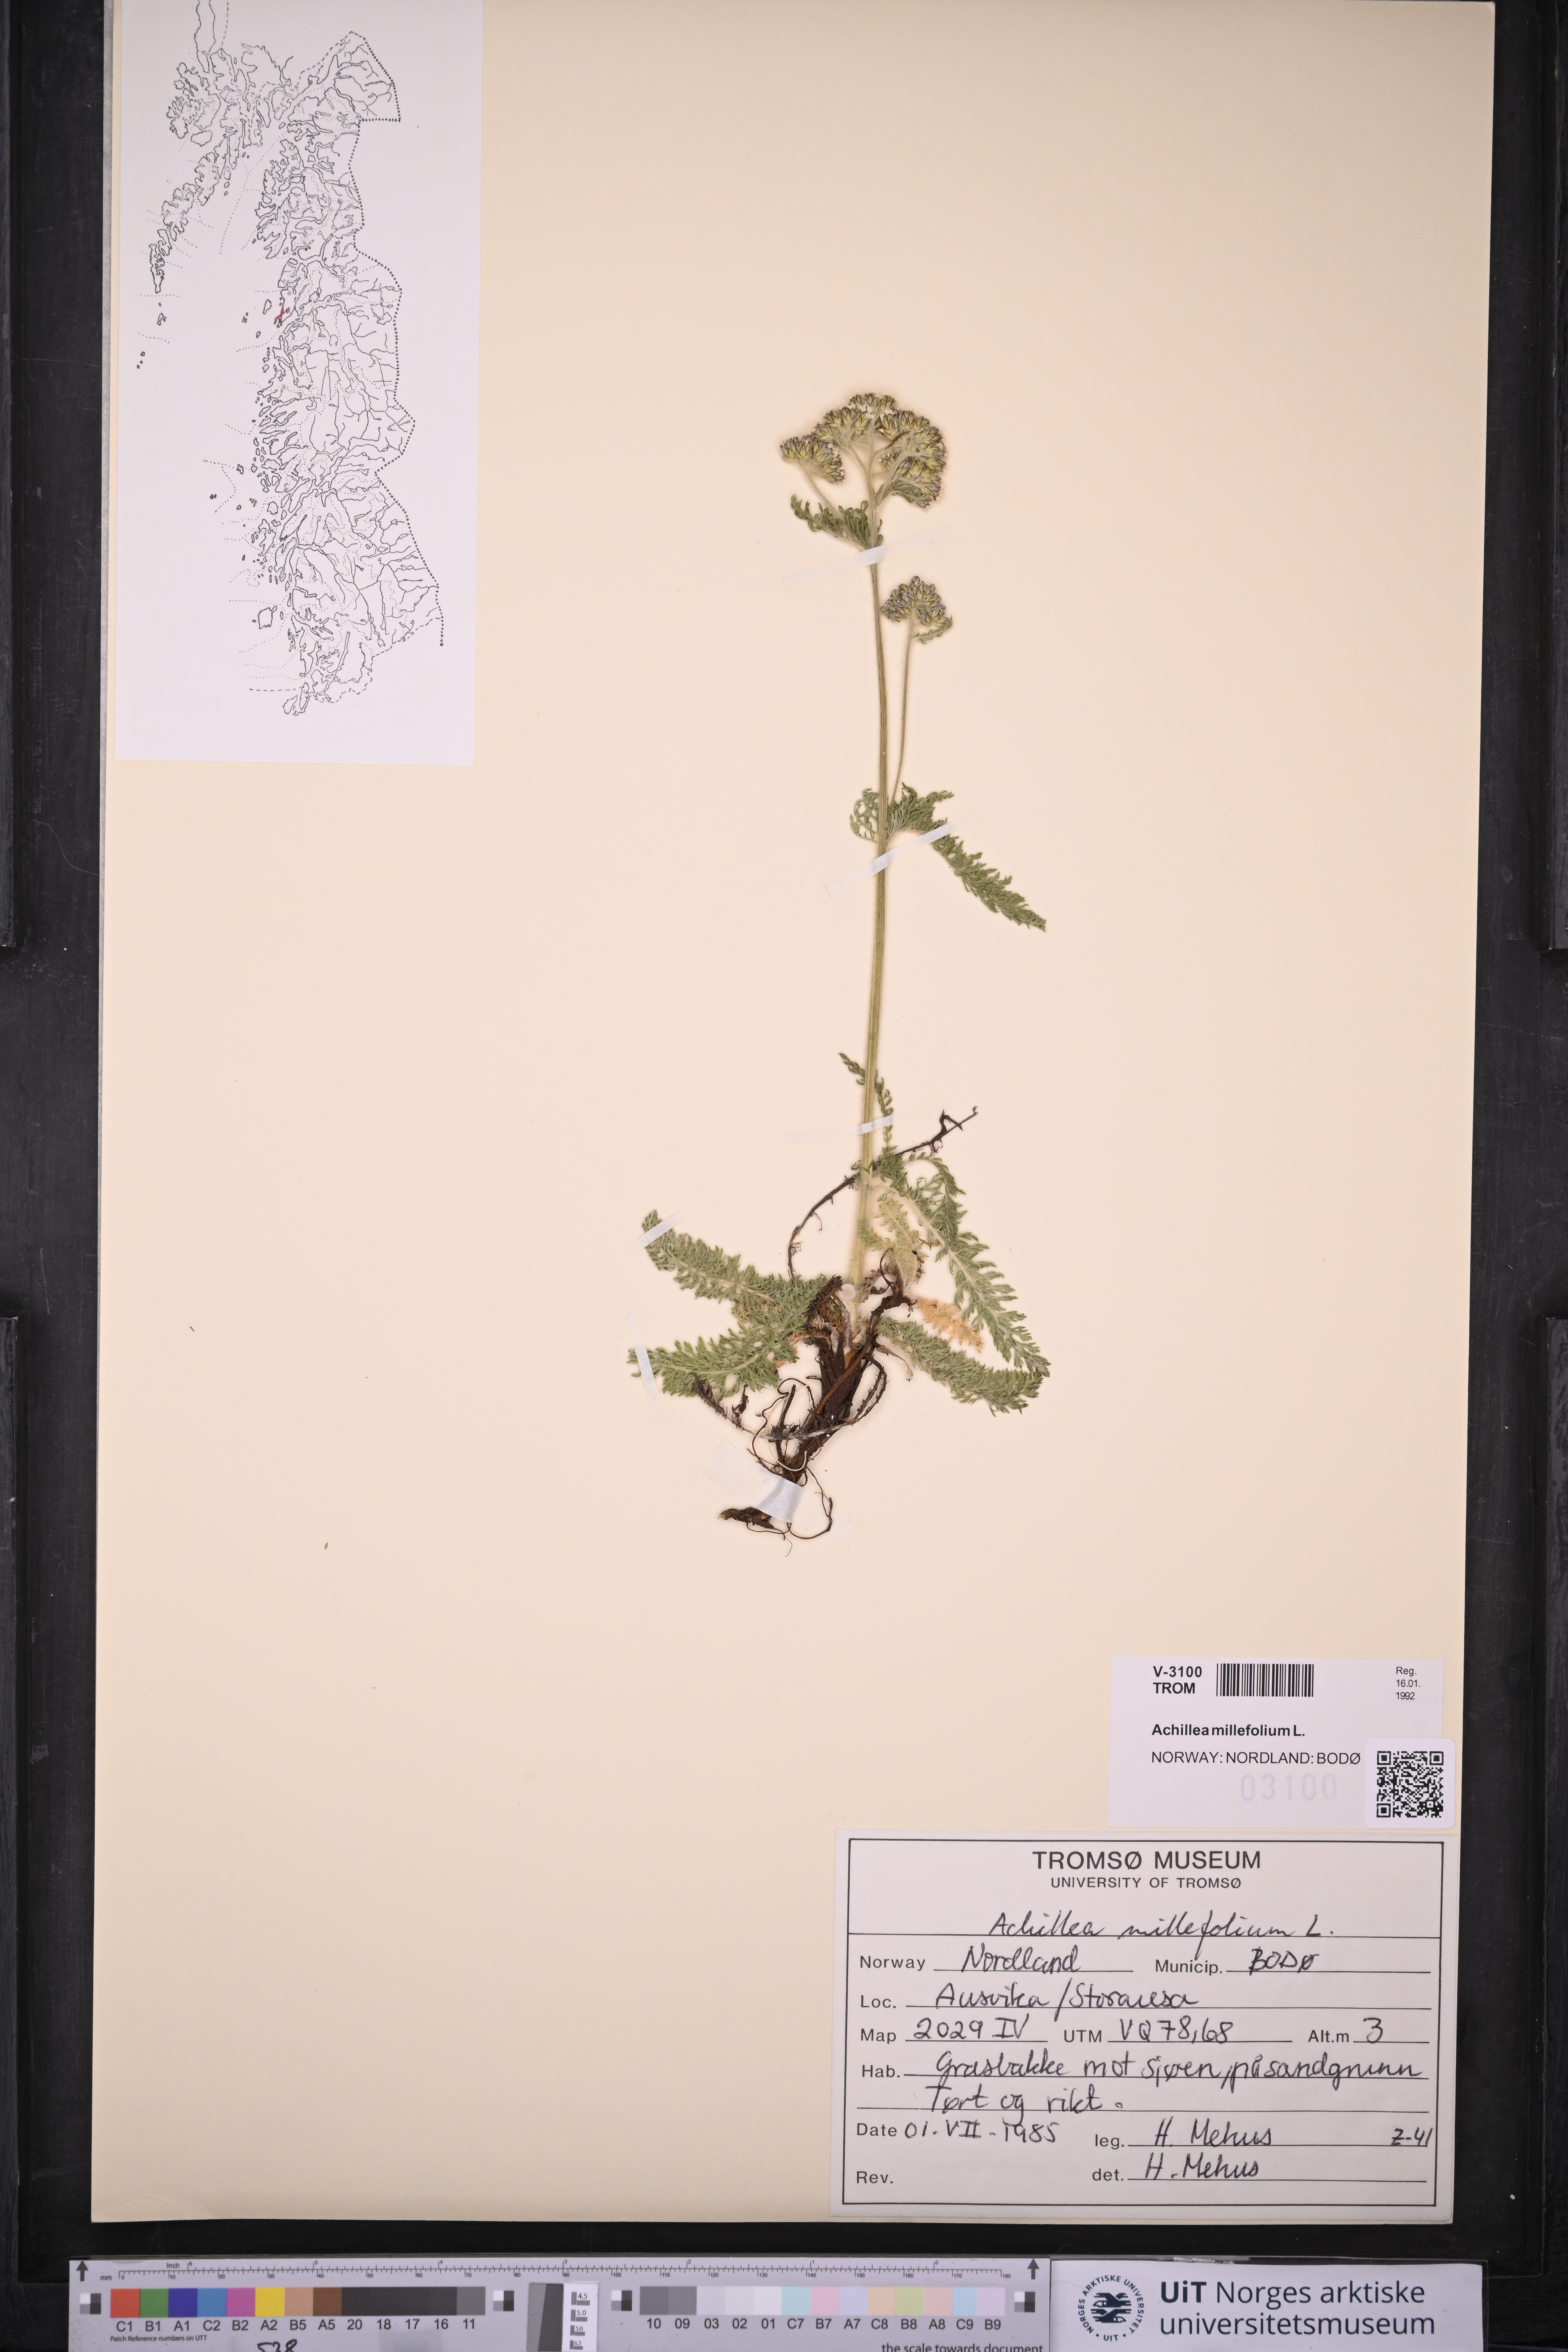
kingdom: Plantae
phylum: Tracheophyta
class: Magnoliopsida
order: Asterales
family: Asteraceae
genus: Achillea
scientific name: Achillea millefolium
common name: Yarrow
